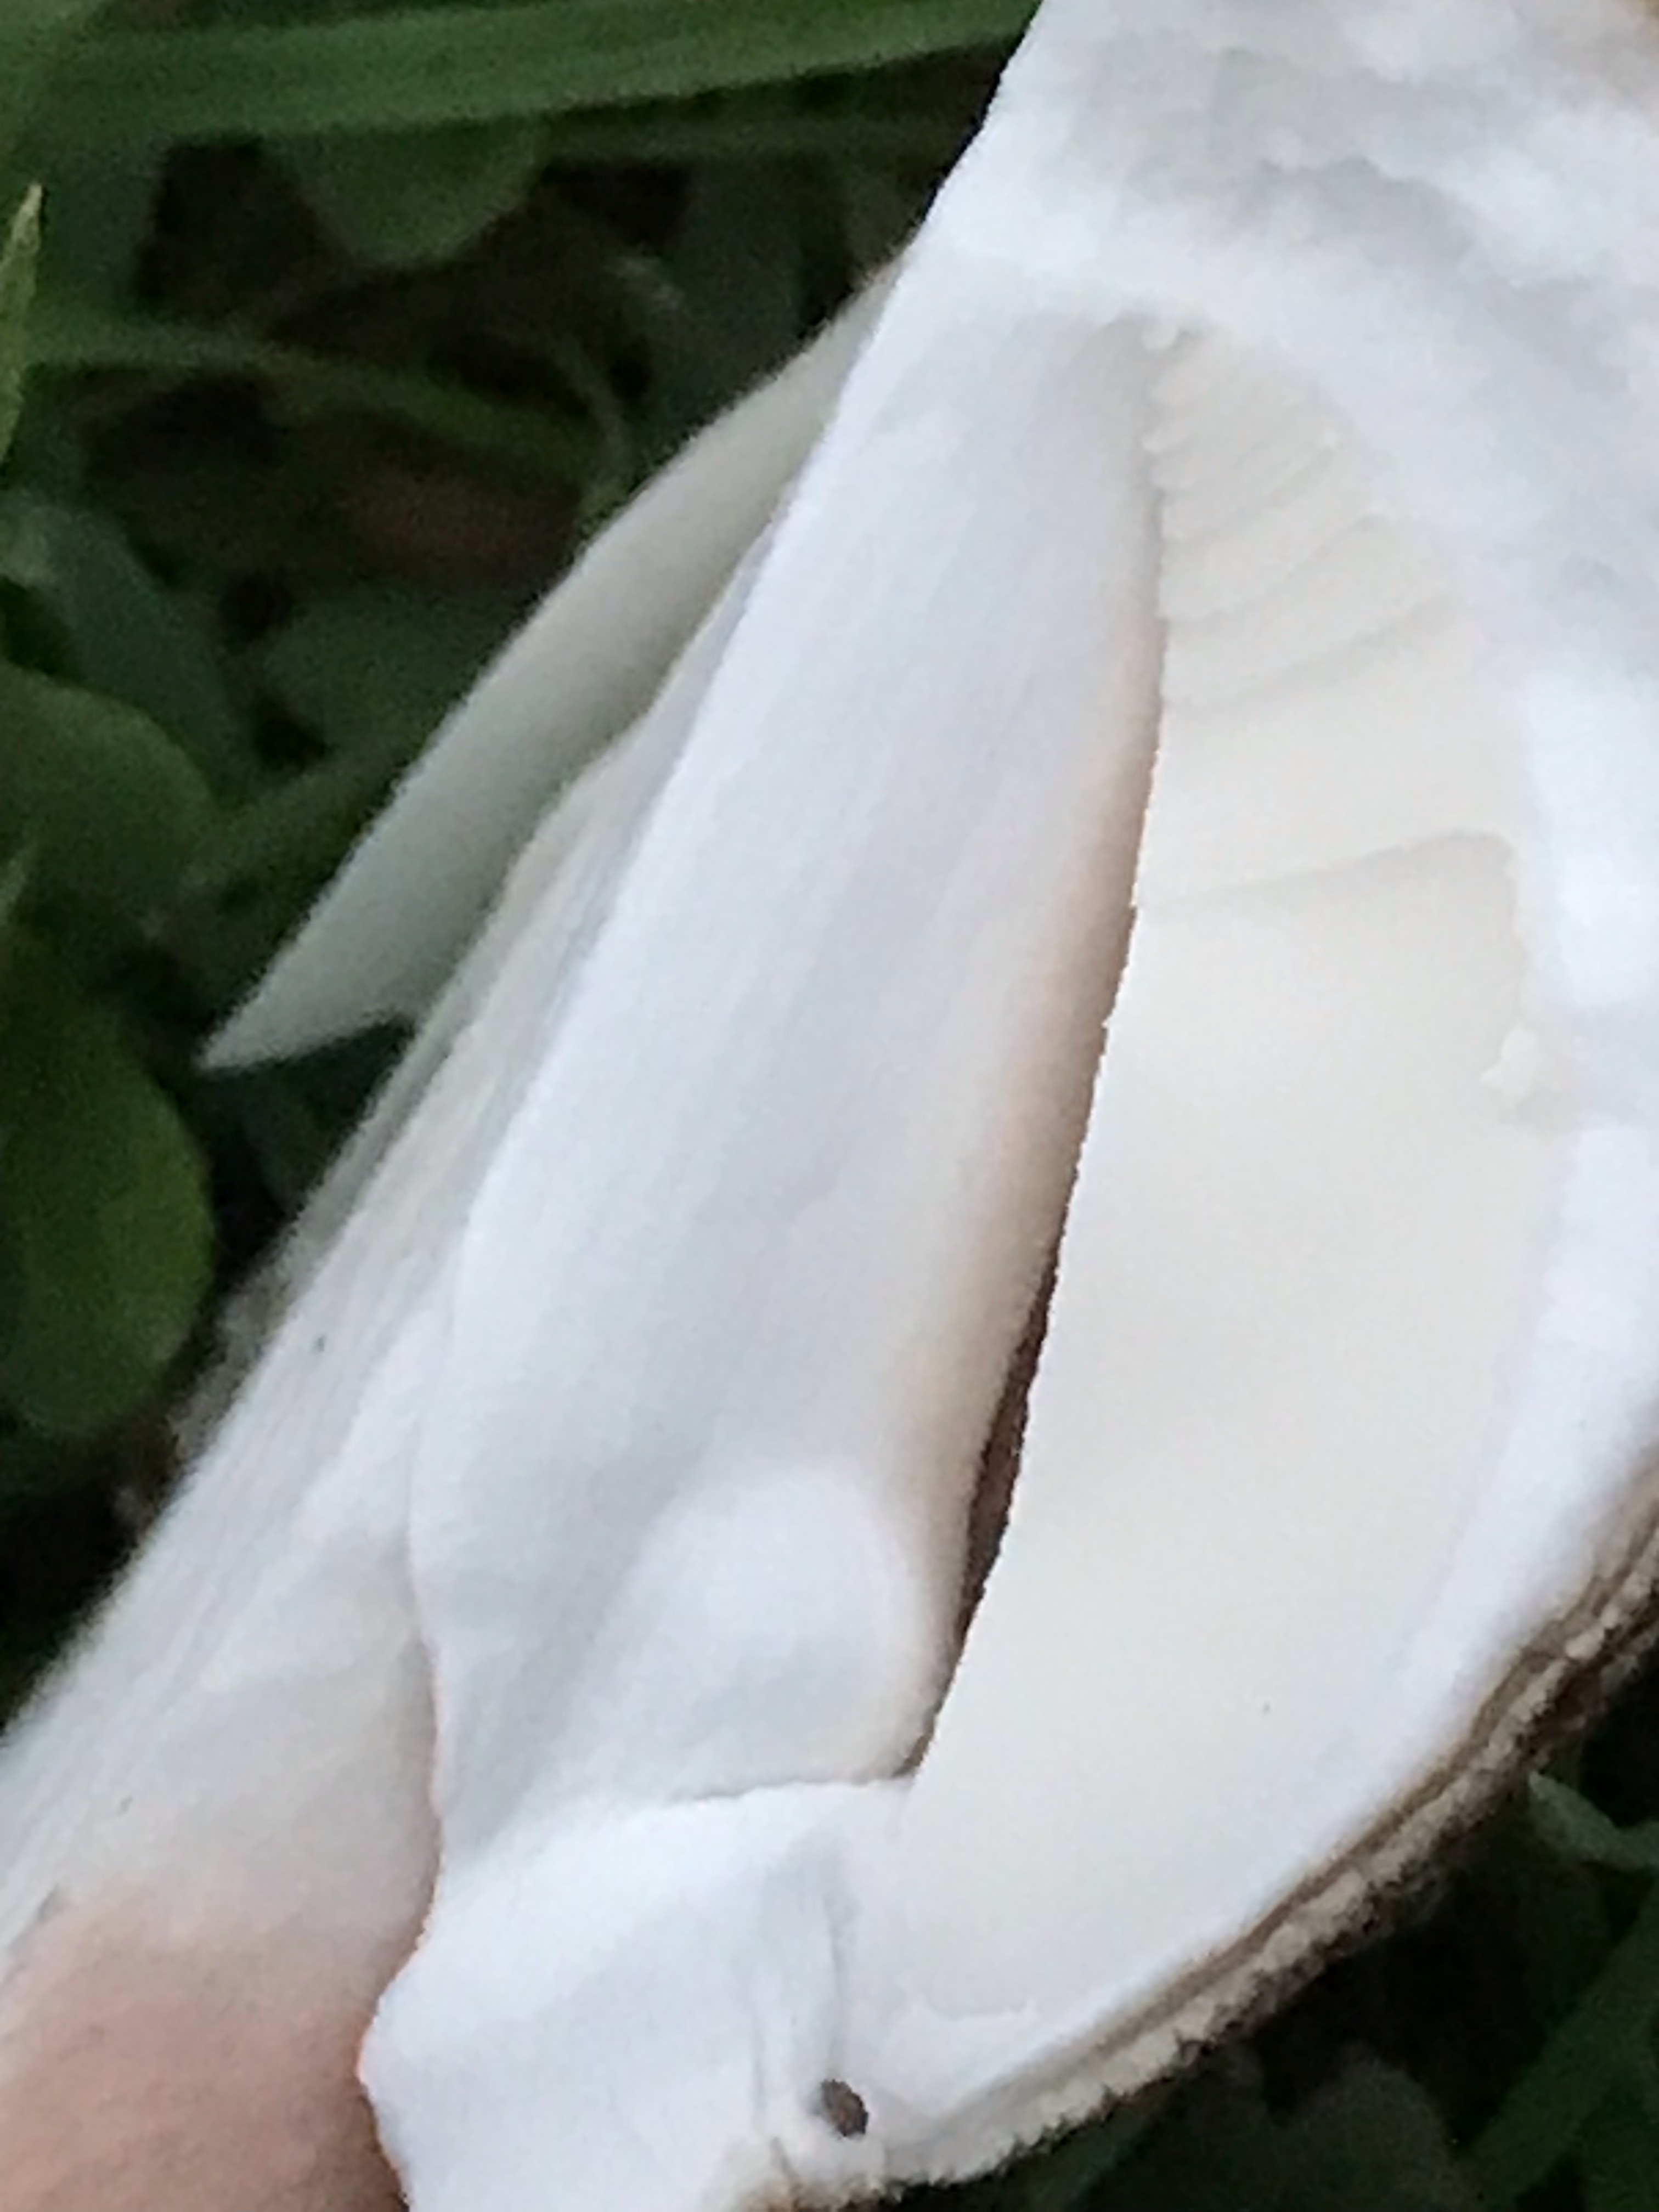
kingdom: Fungi
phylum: Basidiomycota
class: Agaricomycetes
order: Agaricales
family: Amanitaceae
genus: Amanita
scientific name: Amanita rubescens
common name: rødmende fluesvamp
